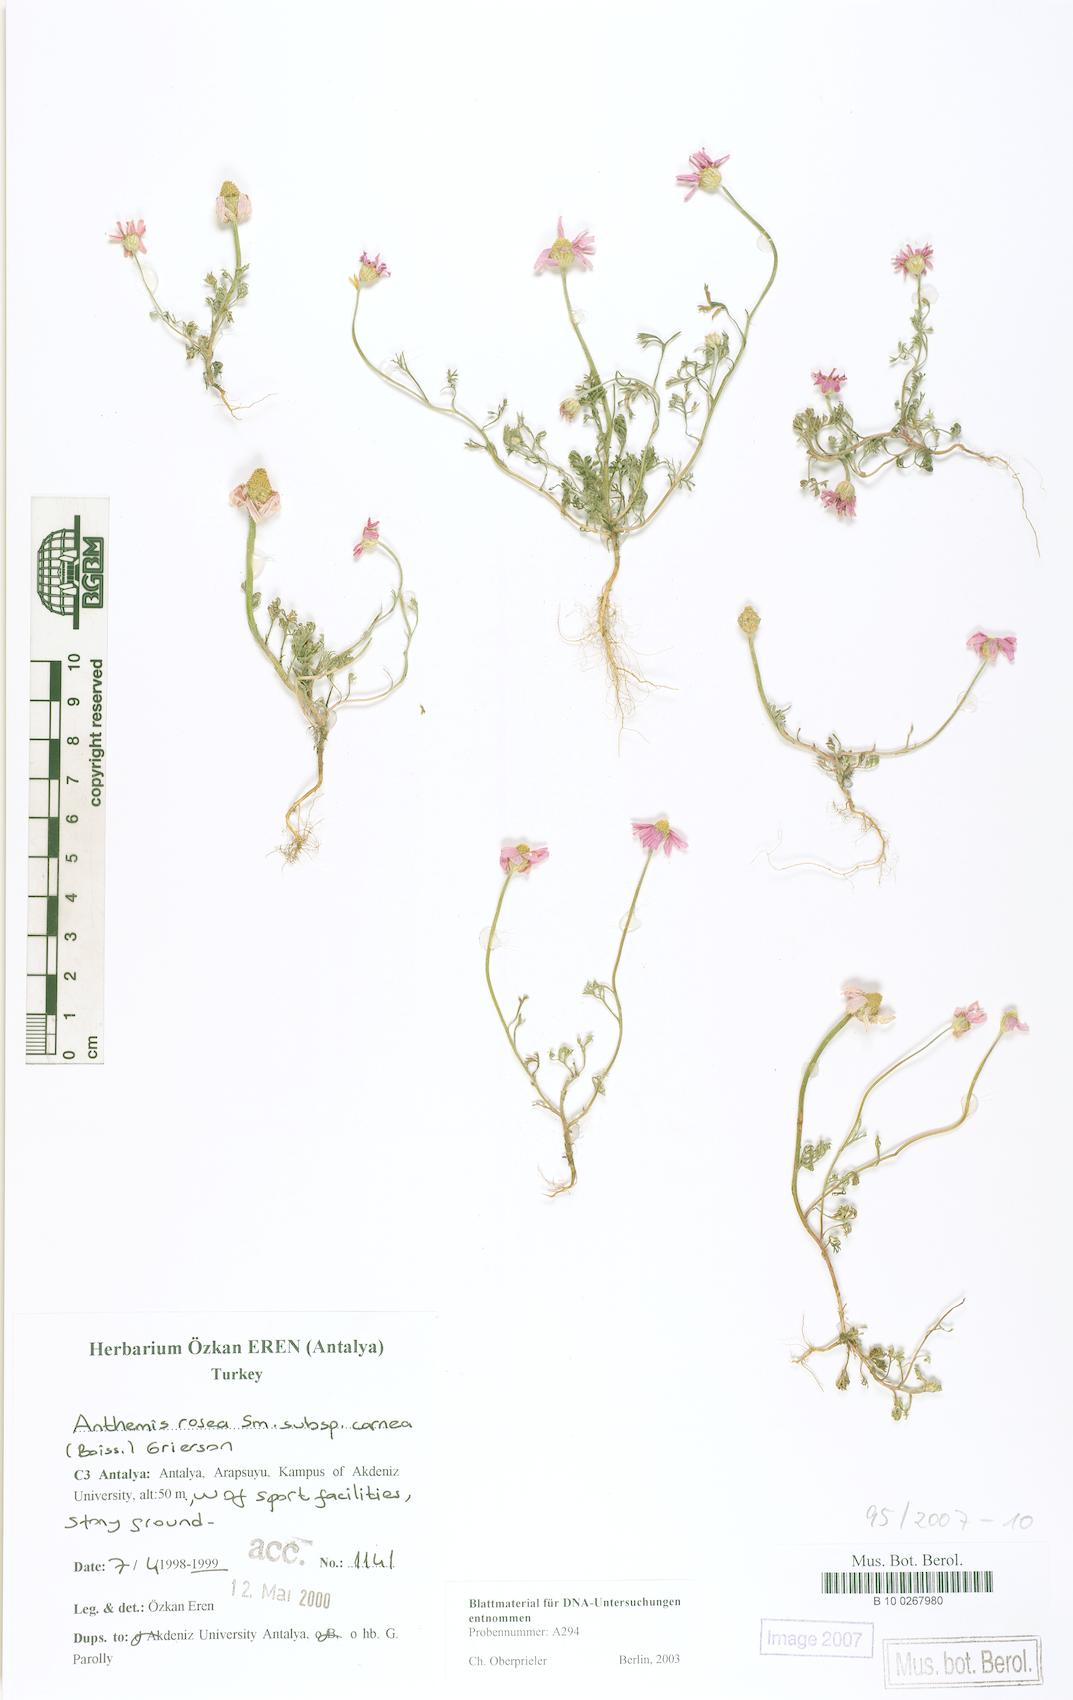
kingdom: Plantae
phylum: Tracheophyta
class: Magnoliopsida
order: Asterales
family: Asteraceae
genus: Anthemis
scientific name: Anthemis rosea
